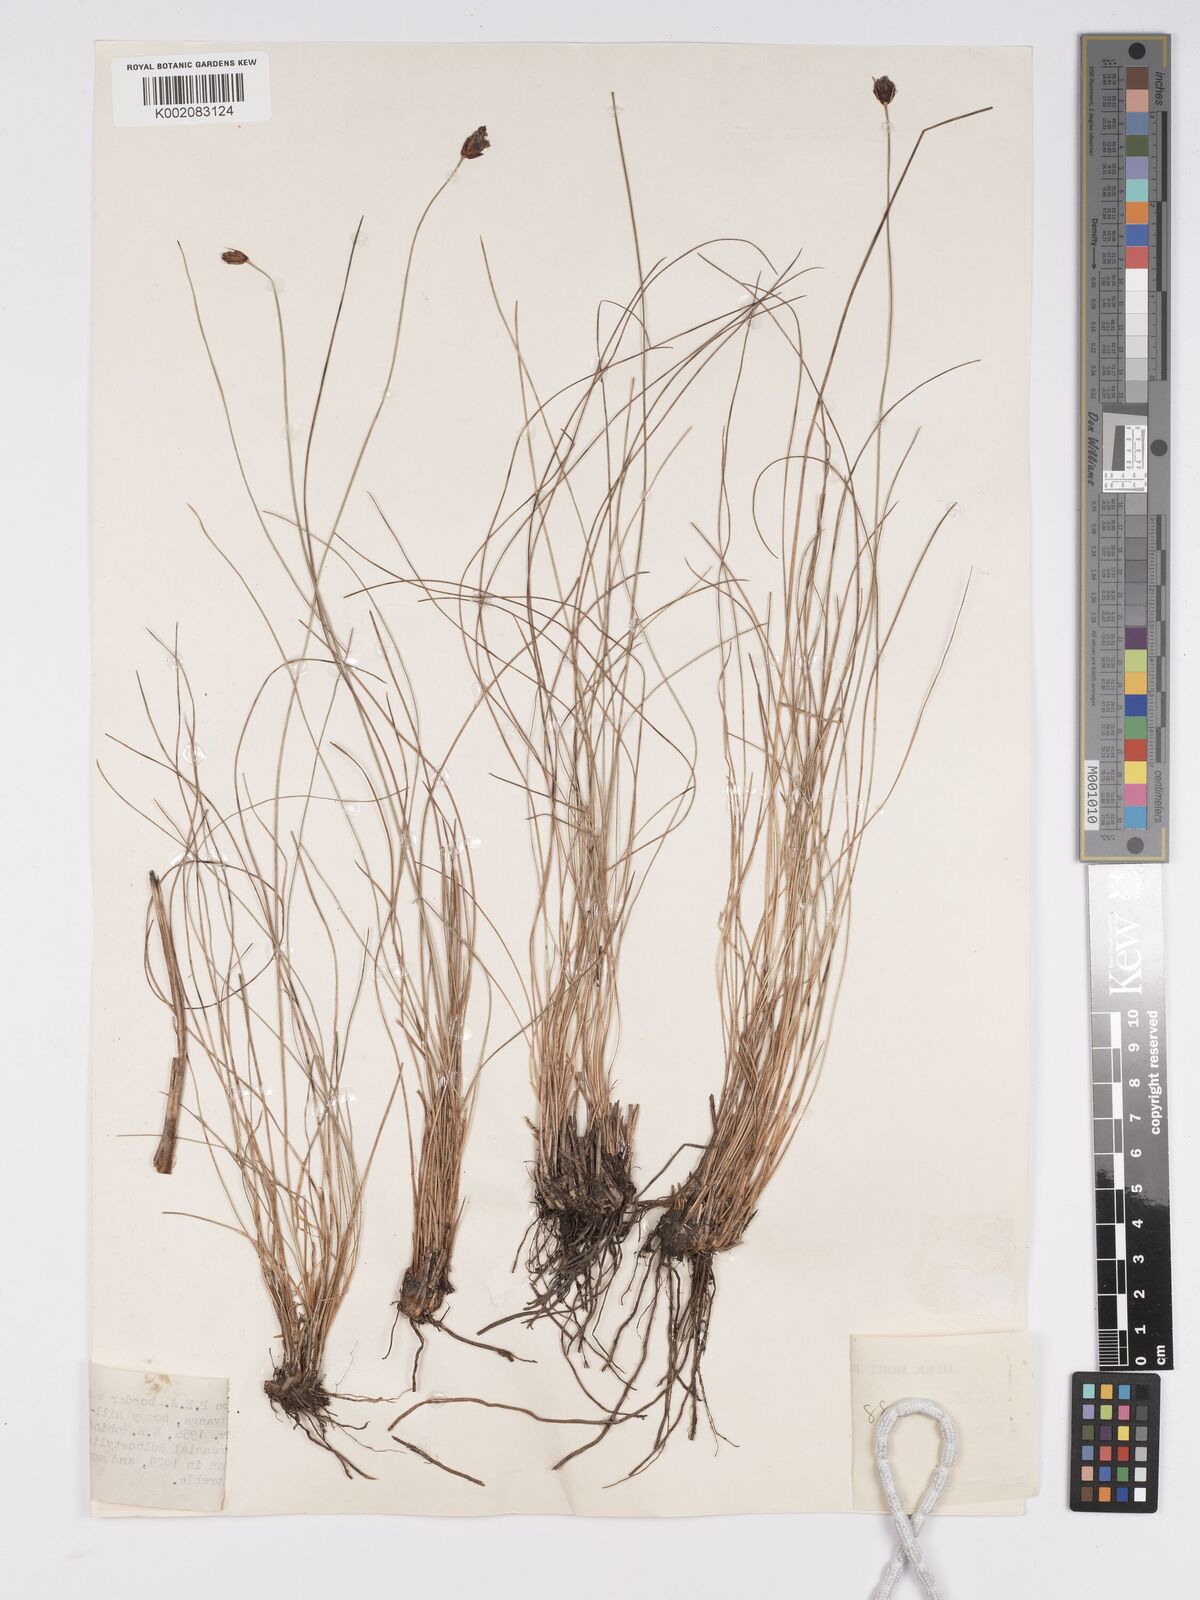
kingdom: Plantae
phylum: Tracheophyta
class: Liliopsida
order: Poales
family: Cyperaceae
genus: Bulbostylis
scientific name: Bulbostylis schoenoides
